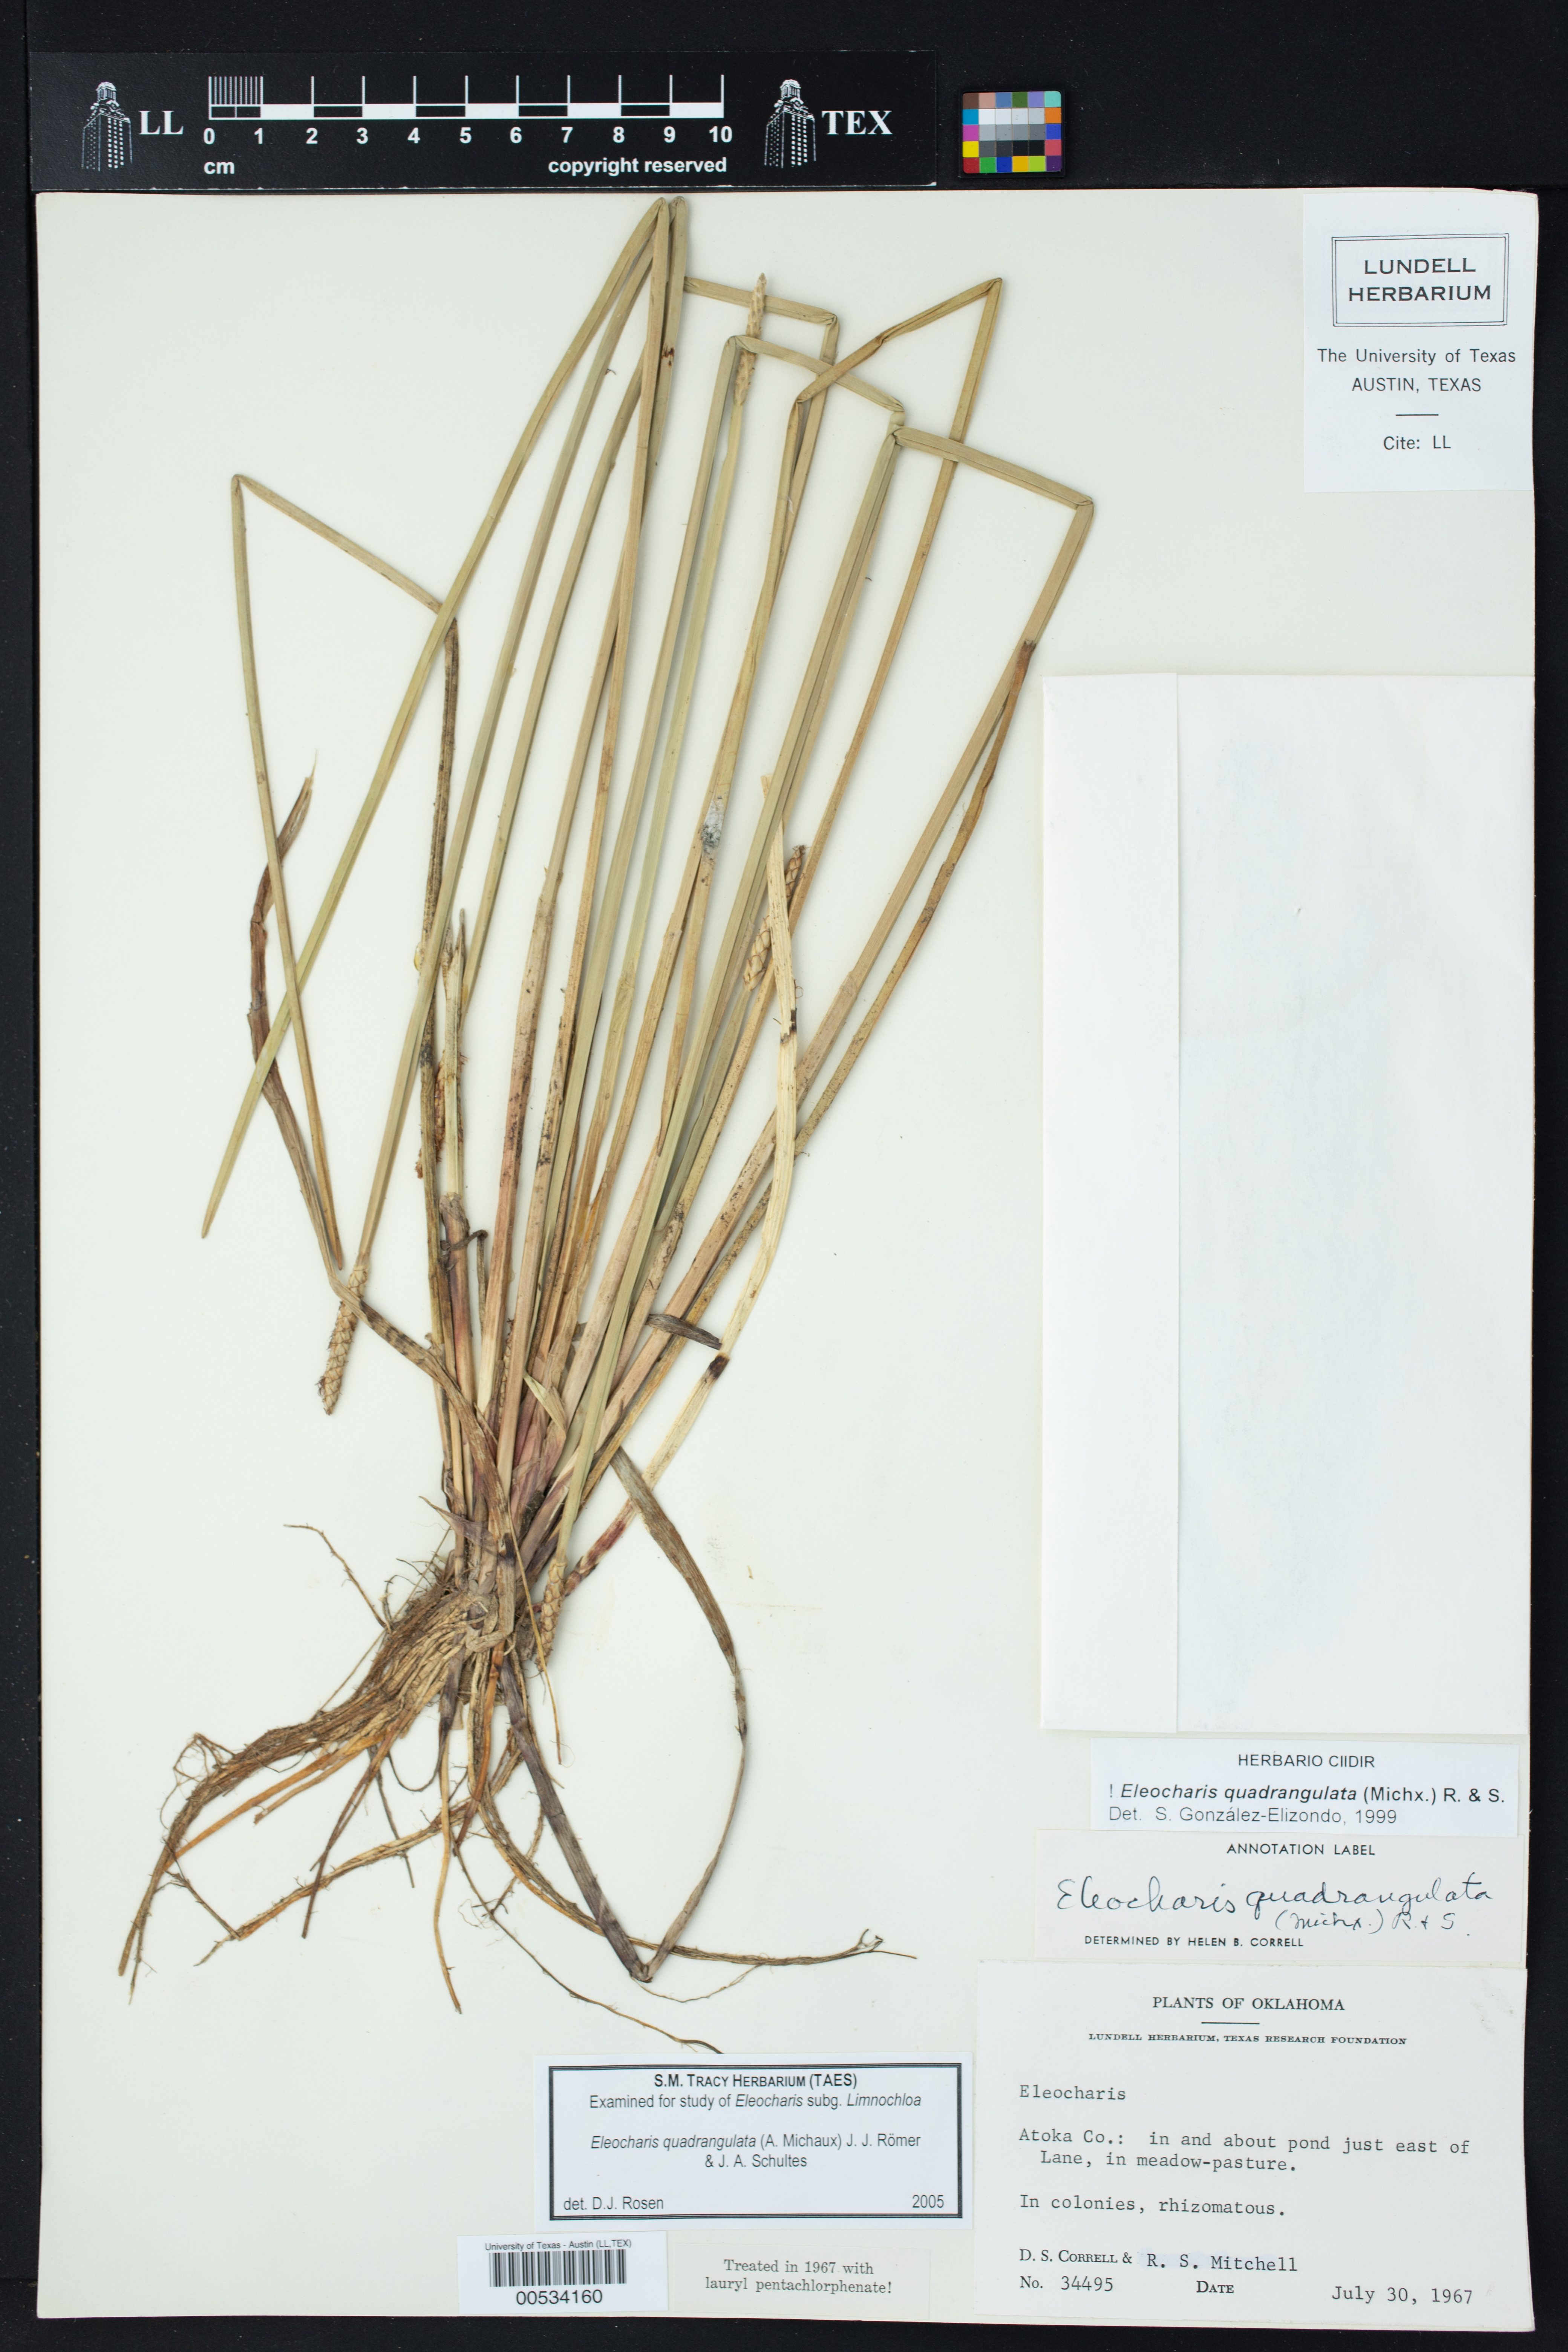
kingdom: Plantae
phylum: Tracheophyta
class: Liliopsida
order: Poales
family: Cyperaceae
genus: Eleocharis
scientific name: Eleocharis quadrangulata
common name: Square-stem spike-rush
